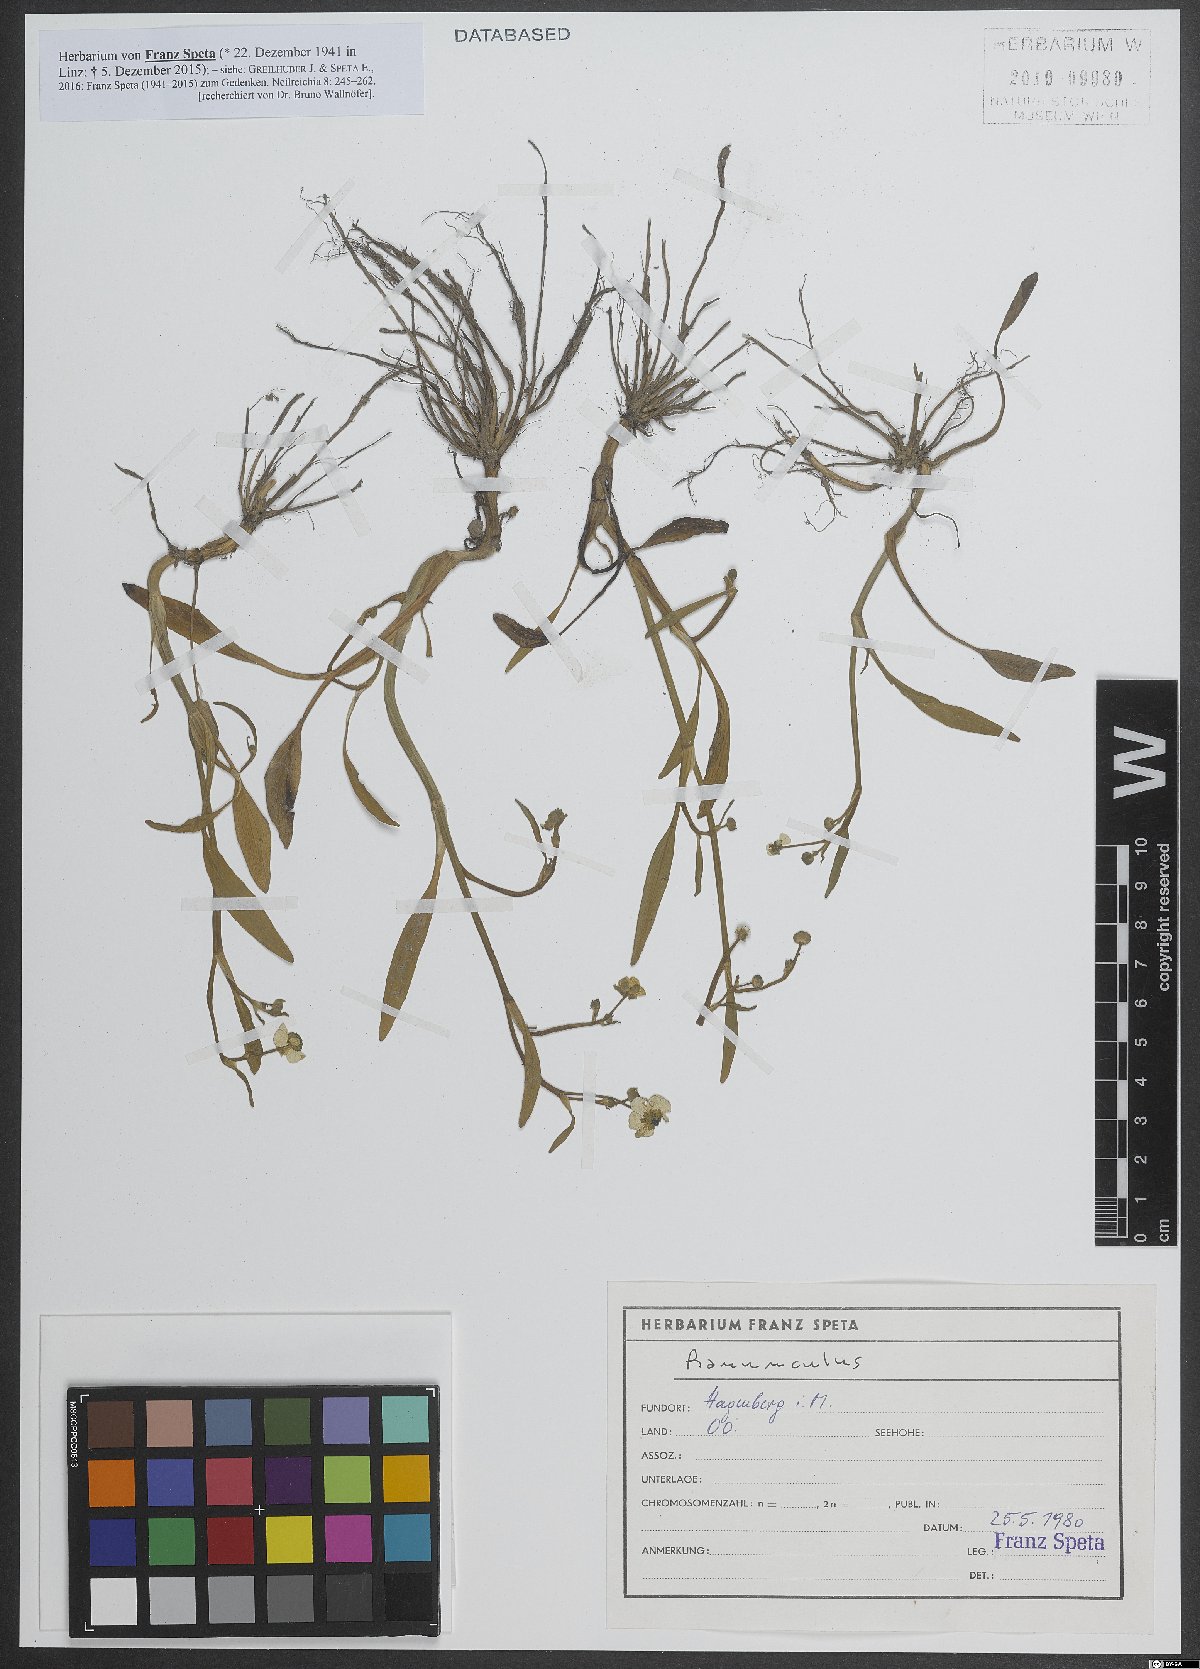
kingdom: Plantae
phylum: Tracheophyta
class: Magnoliopsida
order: Ranunculales
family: Ranunculaceae
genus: Ranunculus
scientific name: Ranunculus
